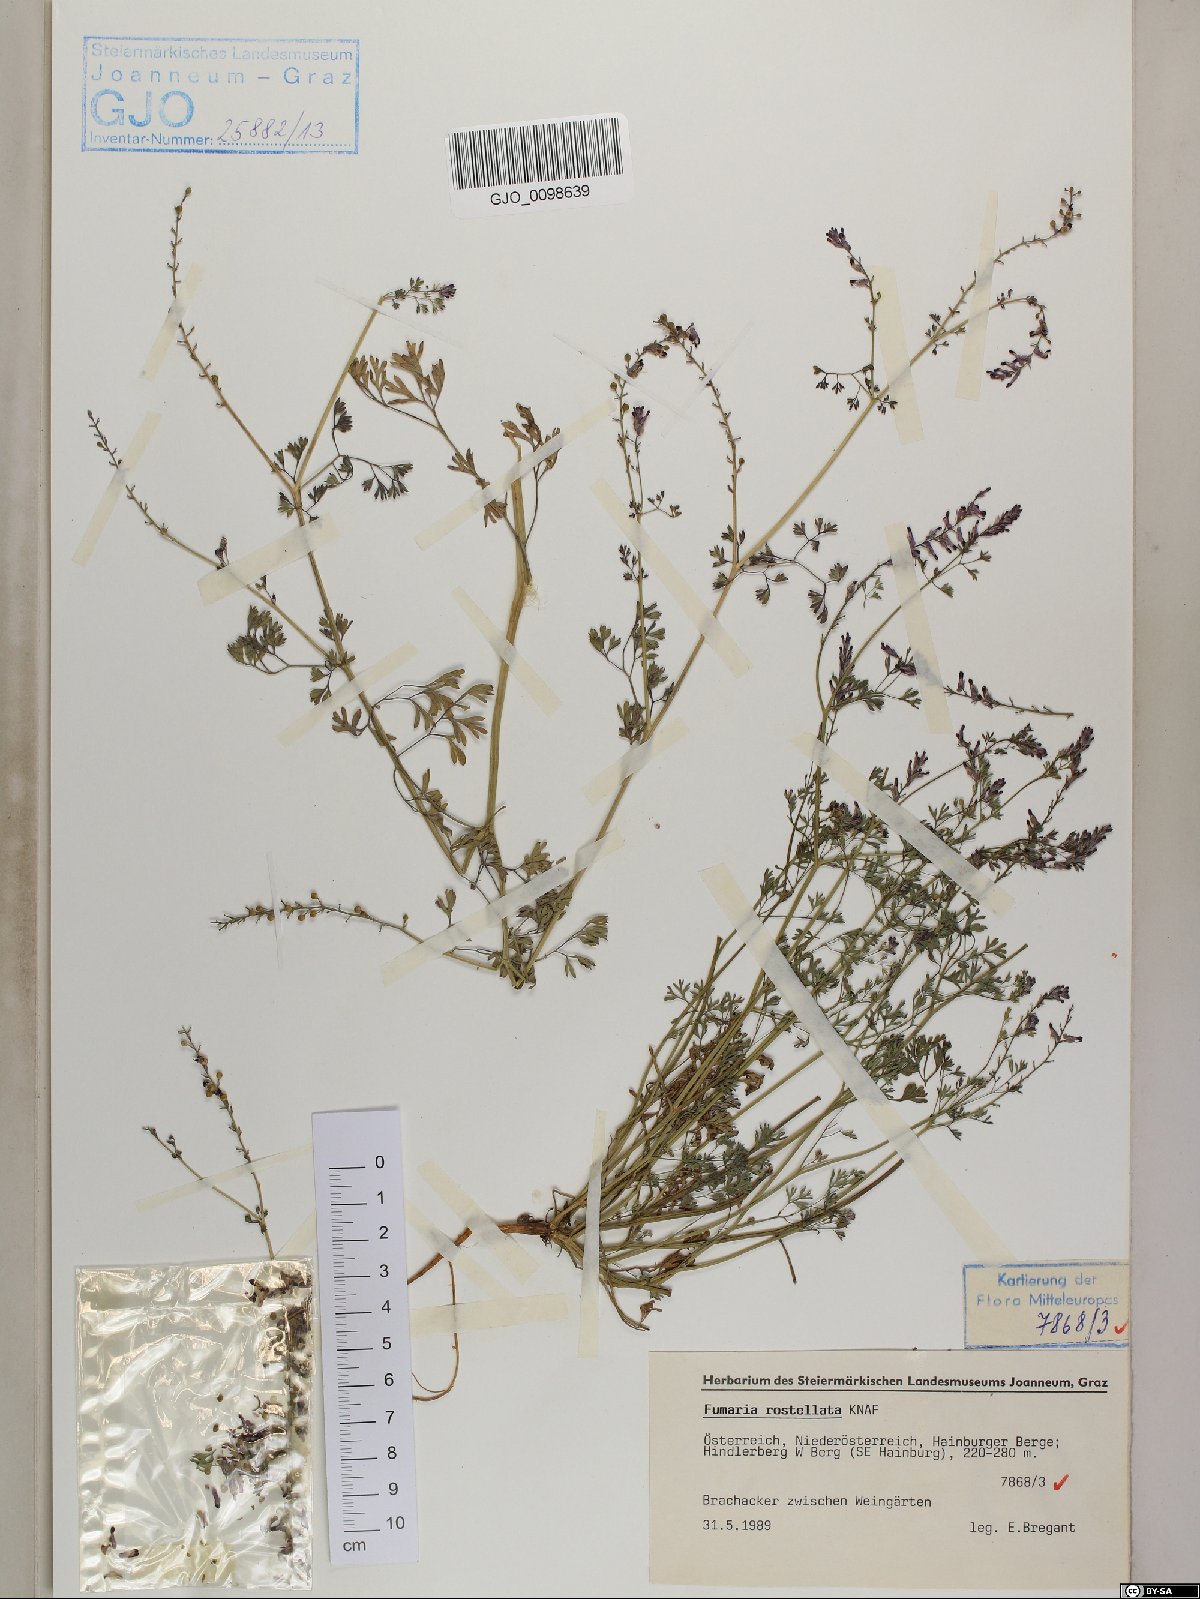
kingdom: Plantae
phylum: Tracheophyta
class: Magnoliopsida
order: Ranunculales
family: Papaveraceae
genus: Fumaria
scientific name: Fumaria rostellata
